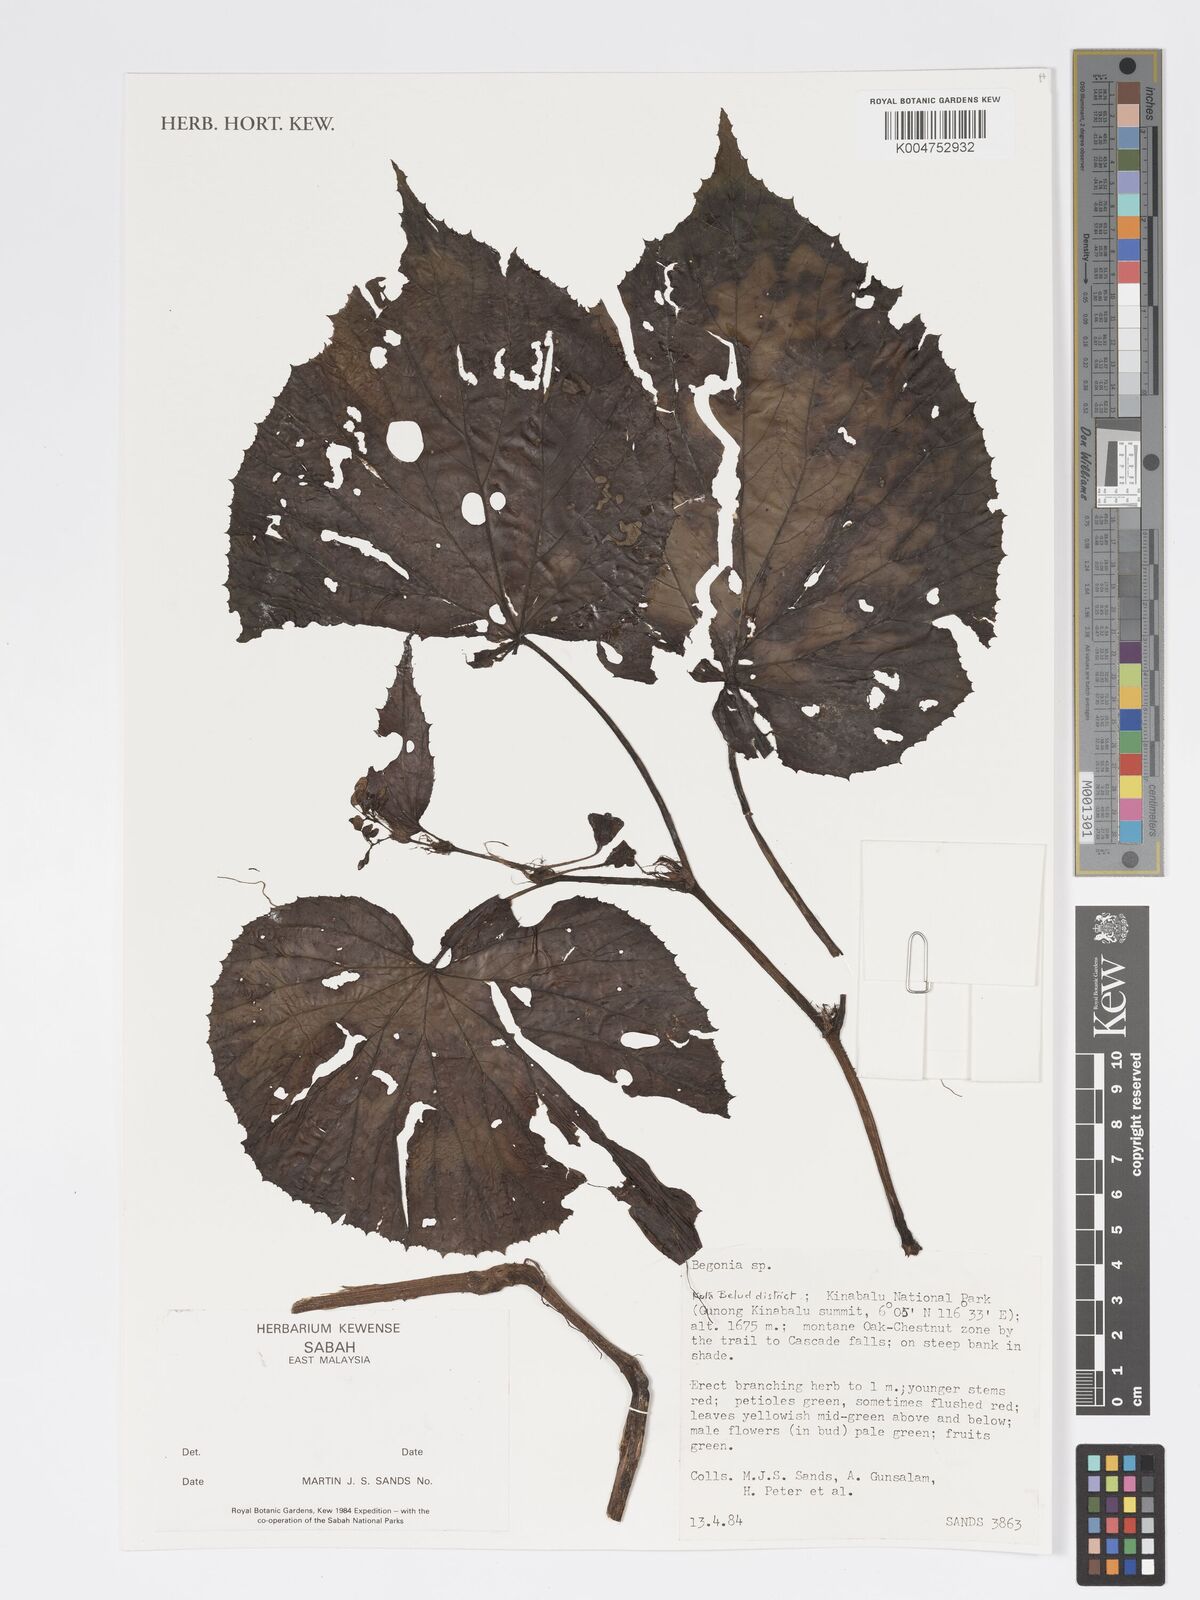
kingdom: Plantae
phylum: Tracheophyta
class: Magnoliopsida
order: Cucurbitales
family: Begoniaceae
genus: Begonia
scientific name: Begonia
